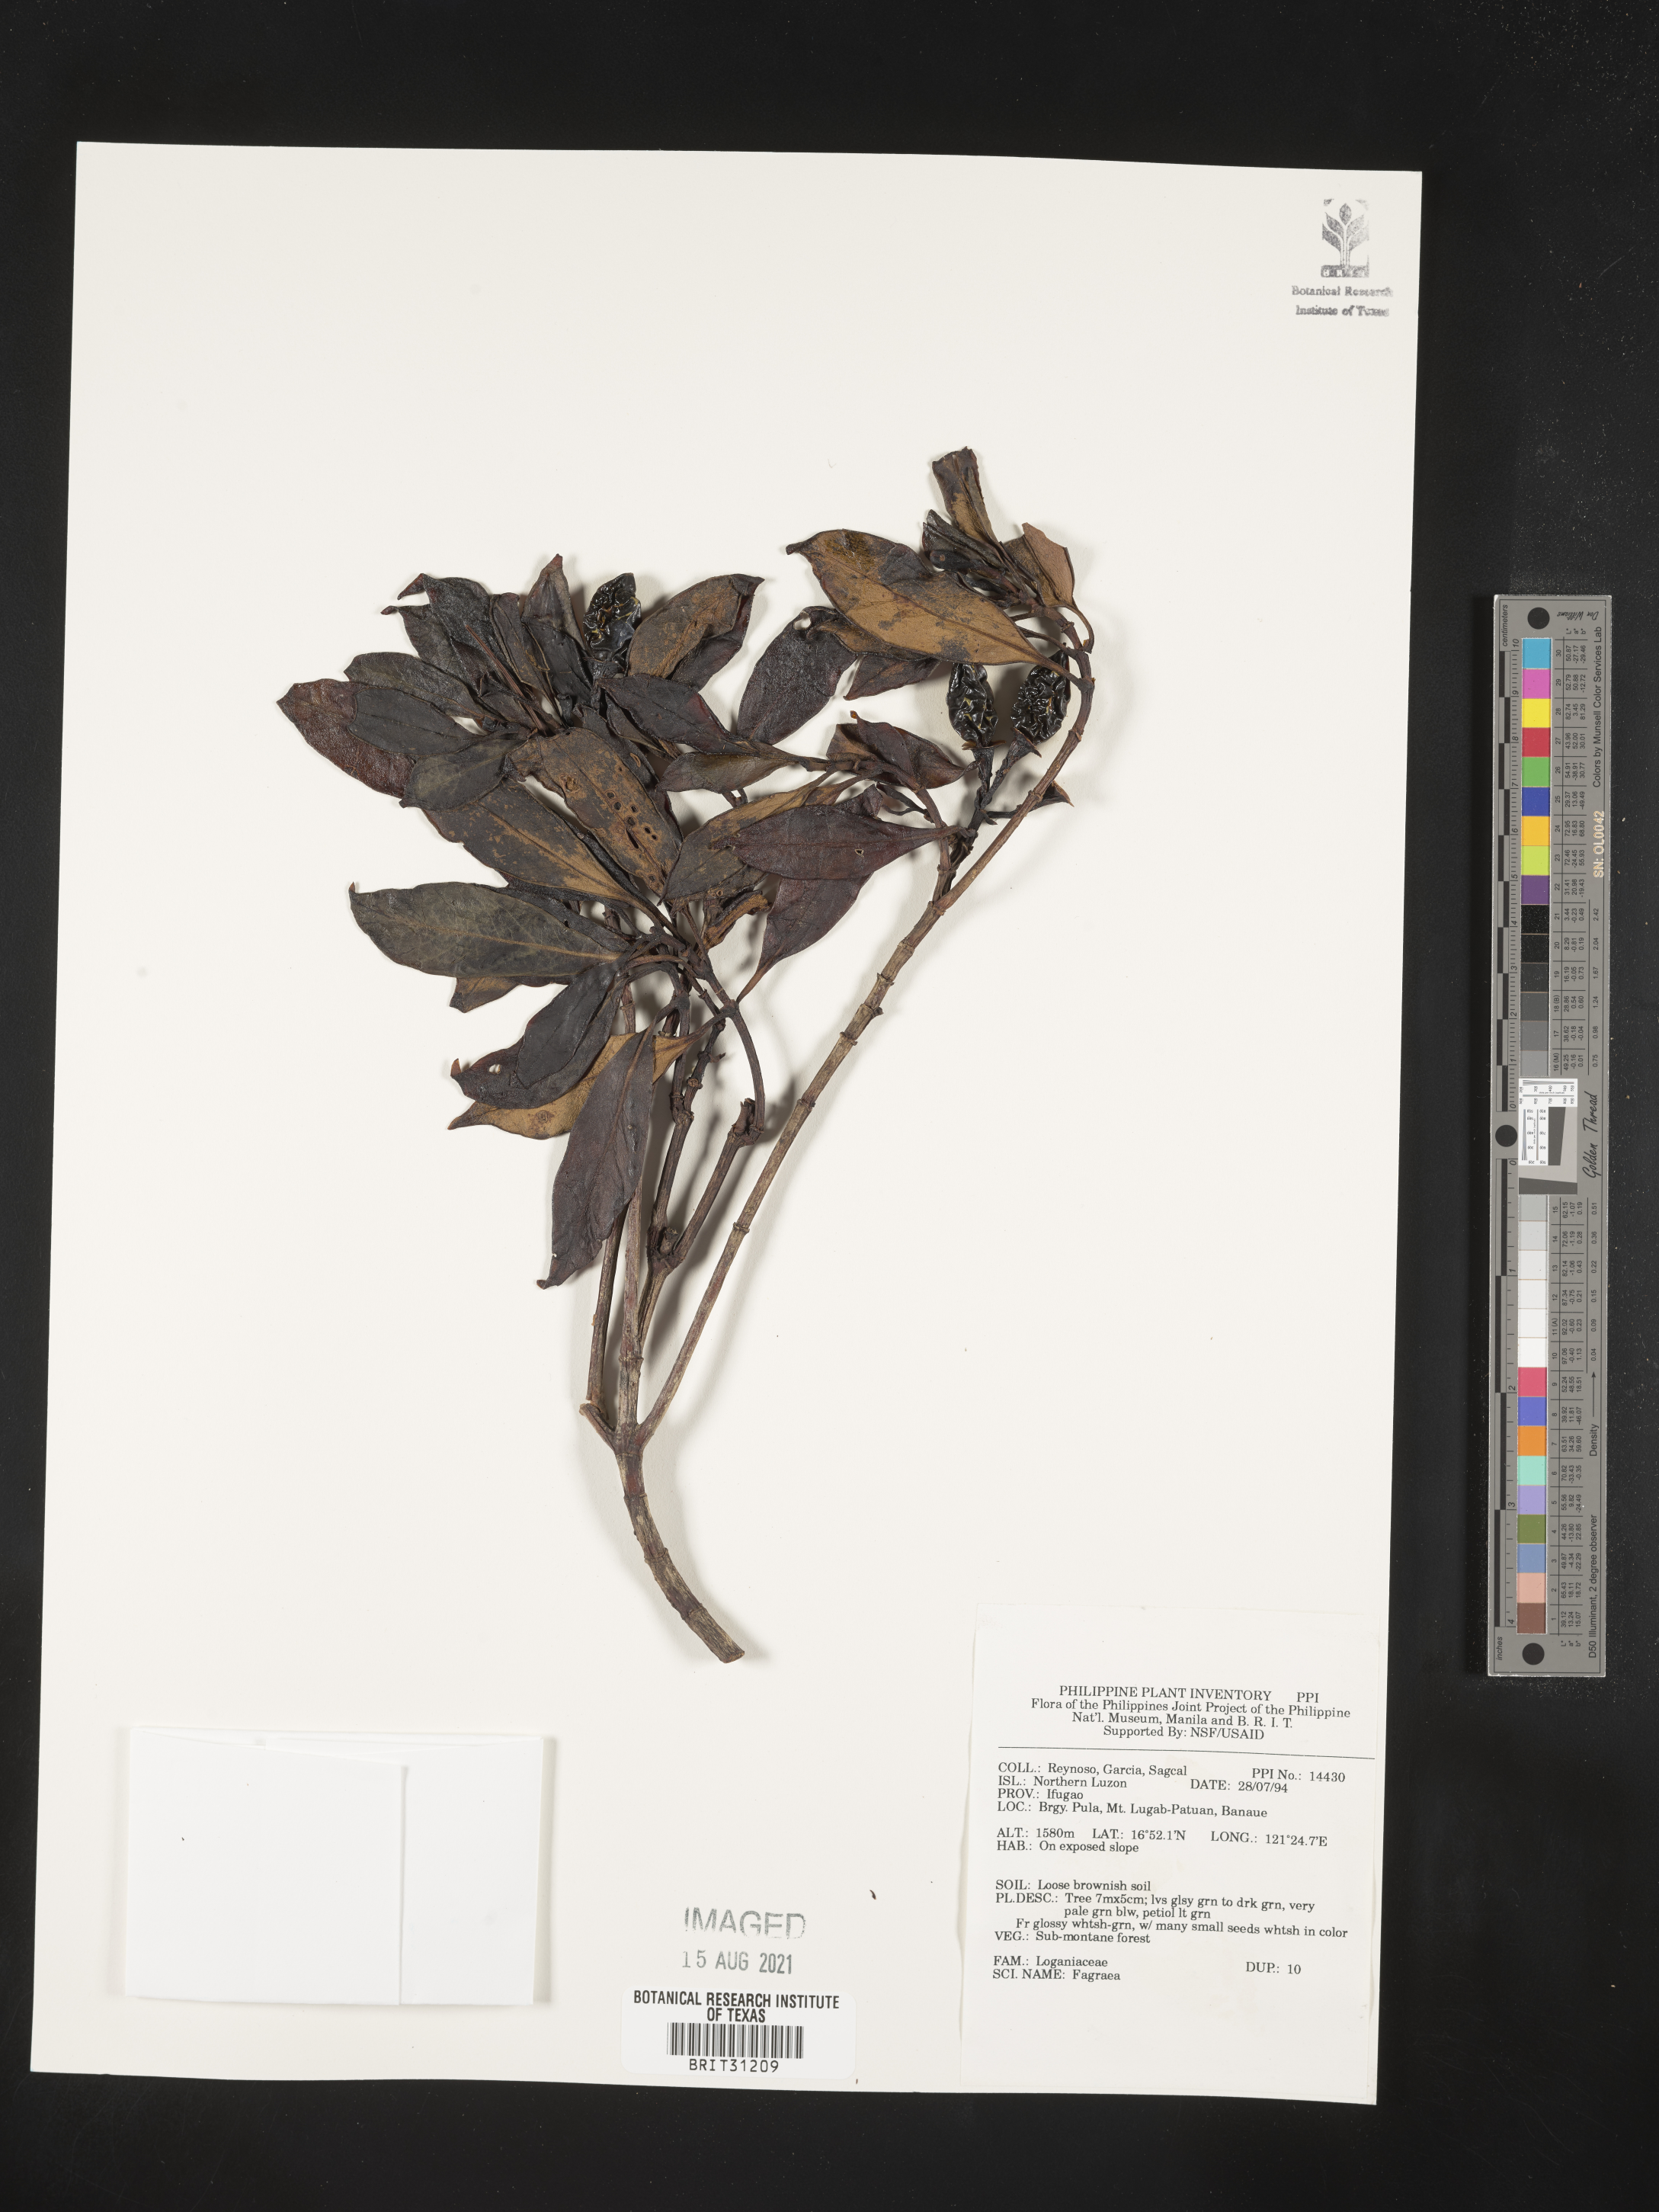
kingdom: Plantae
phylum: Tracheophyta
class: Magnoliopsida
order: Gentianales
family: Gentianaceae
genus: Fagraea
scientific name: Fagraea
